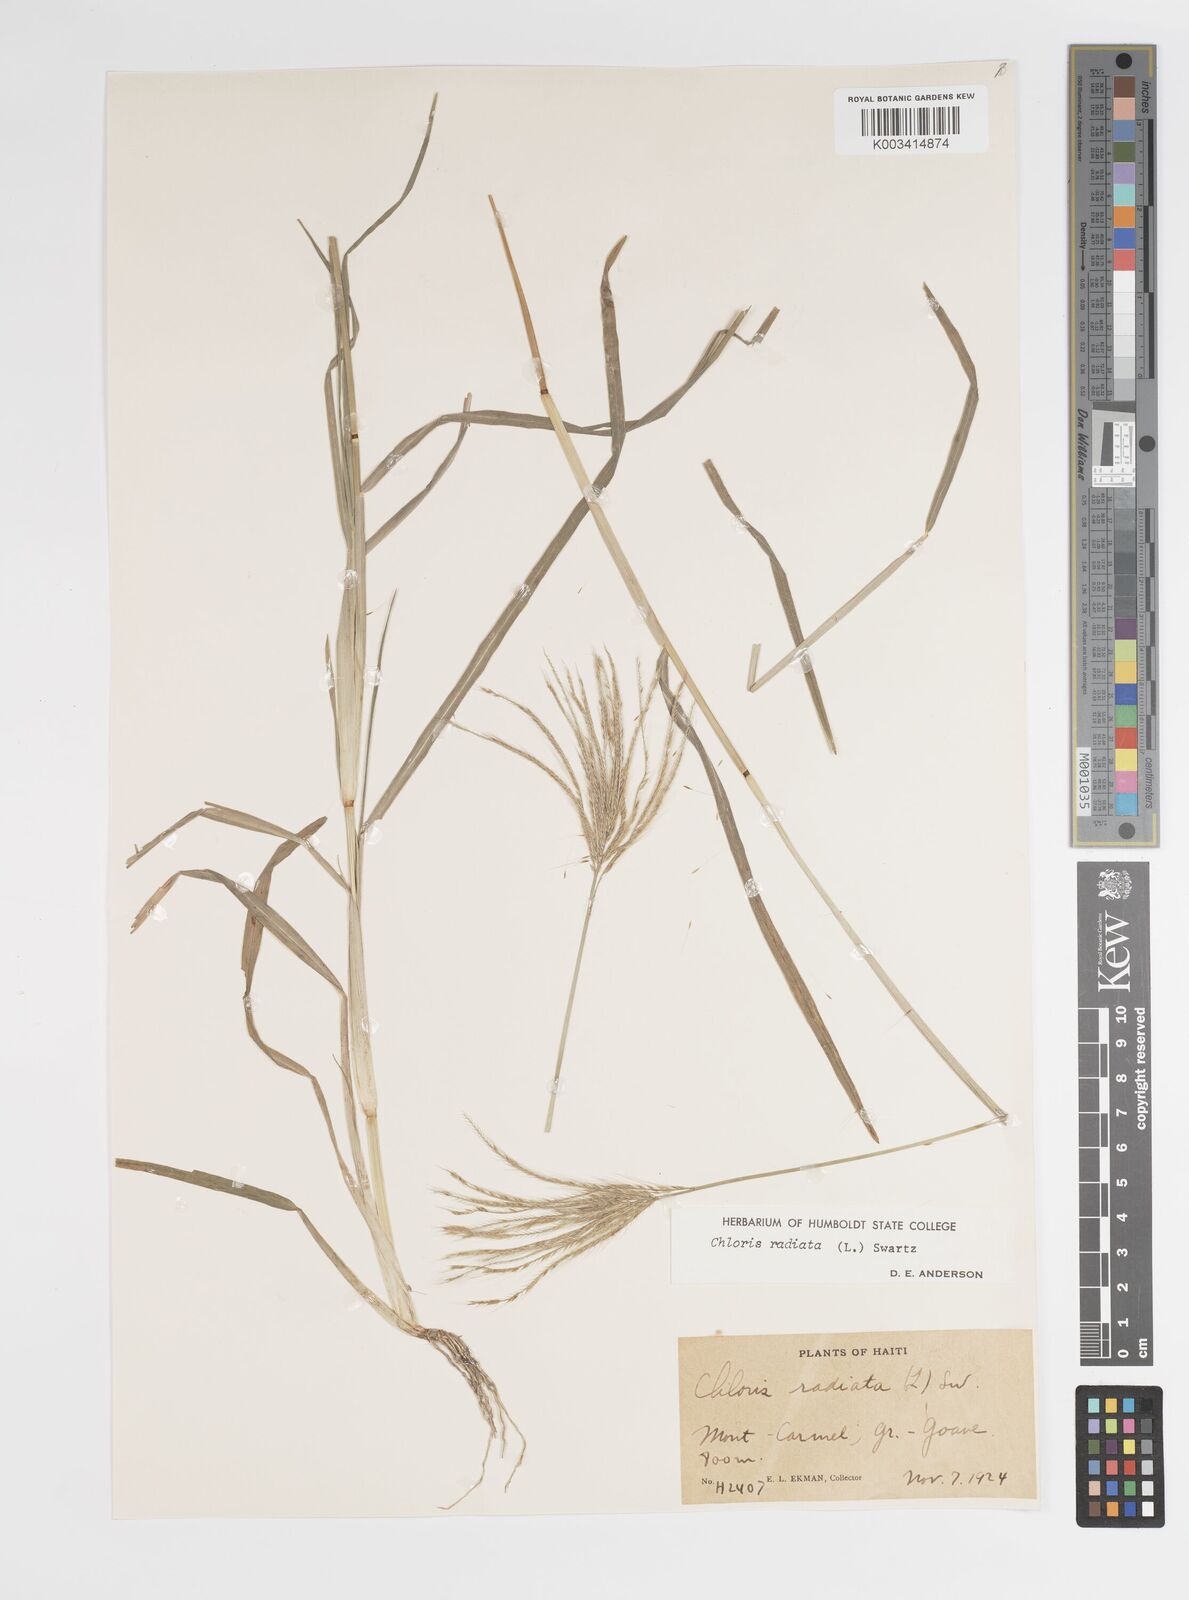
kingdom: Plantae
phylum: Tracheophyta
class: Liliopsida
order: Poales
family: Poaceae
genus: Chloris
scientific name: Chloris radiata
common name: Radiate fingergrass
